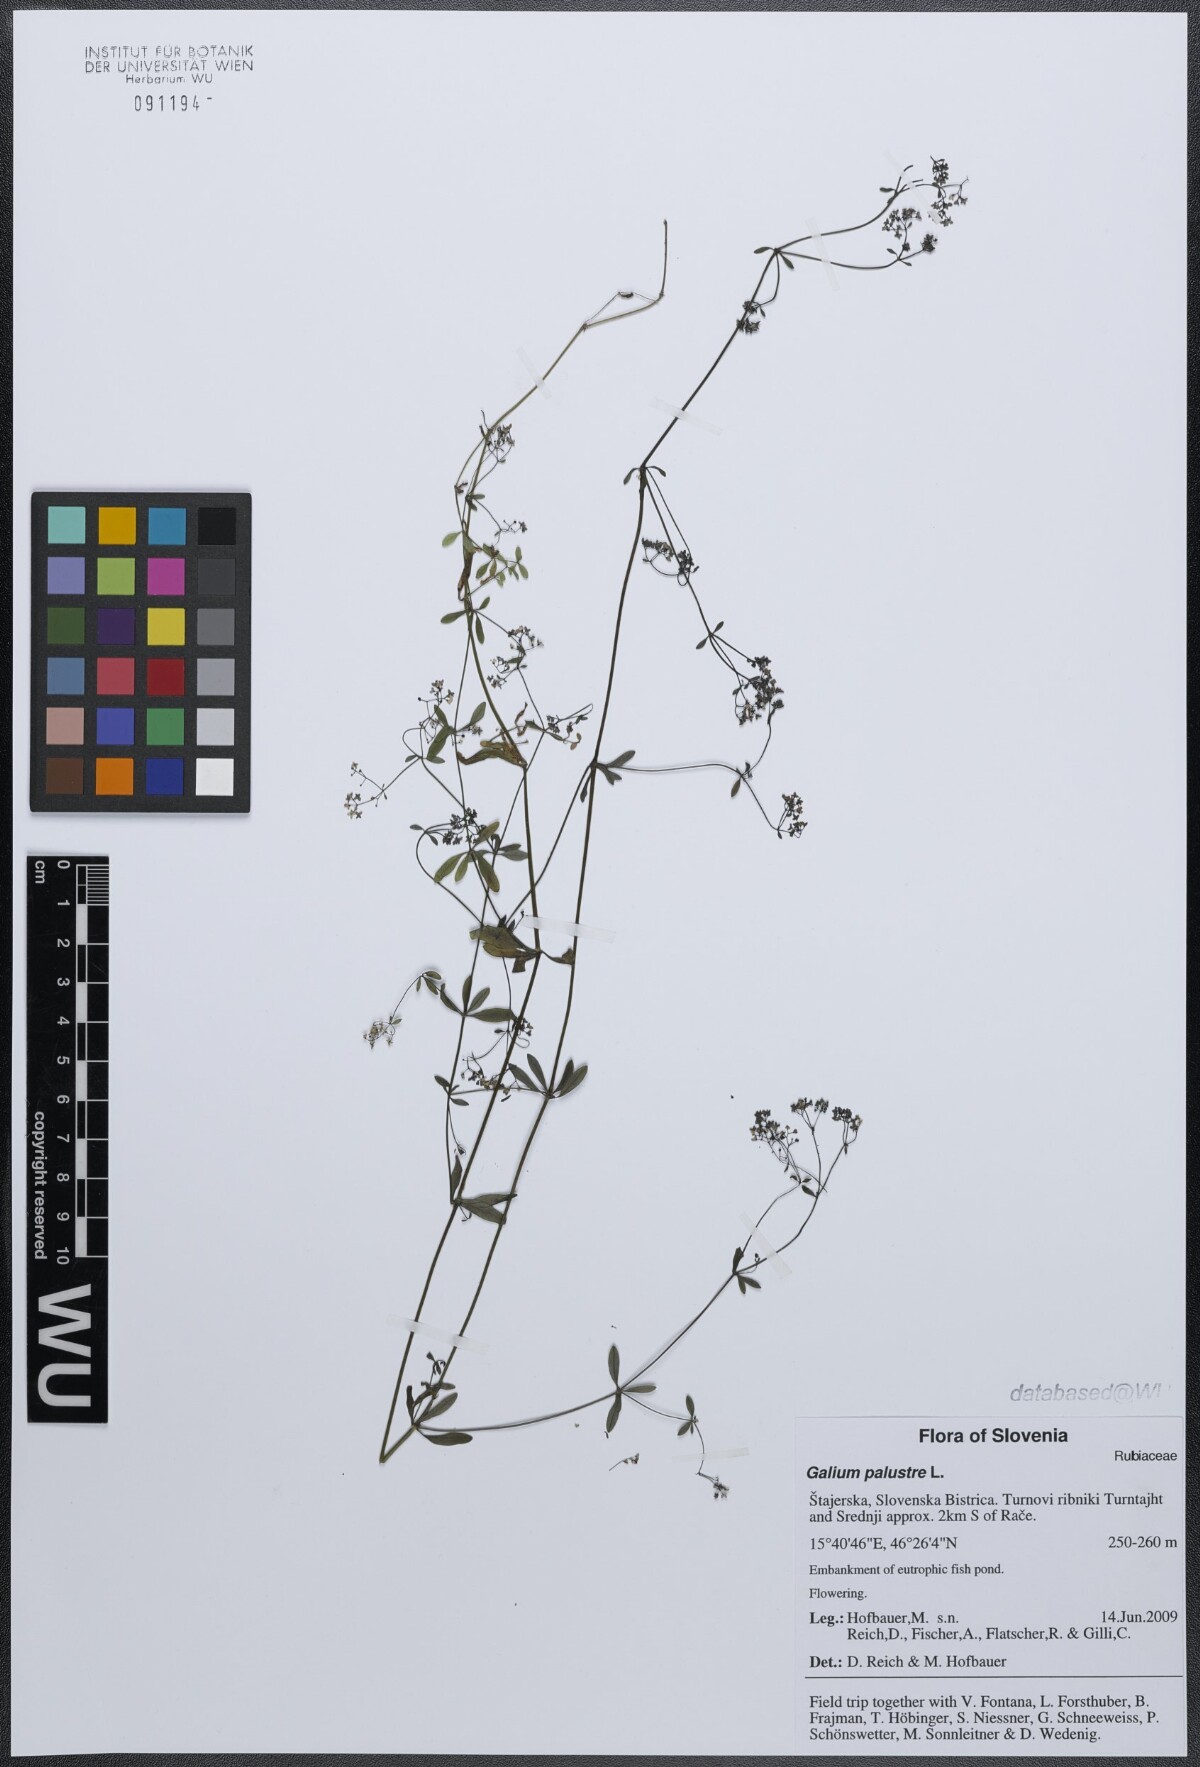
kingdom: Plantae
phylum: Tracheophyta
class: Magnoliopsida
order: Gentianales
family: Rubiaceae
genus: Galium
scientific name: Galium palustre
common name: Common marsh-bedstraw
